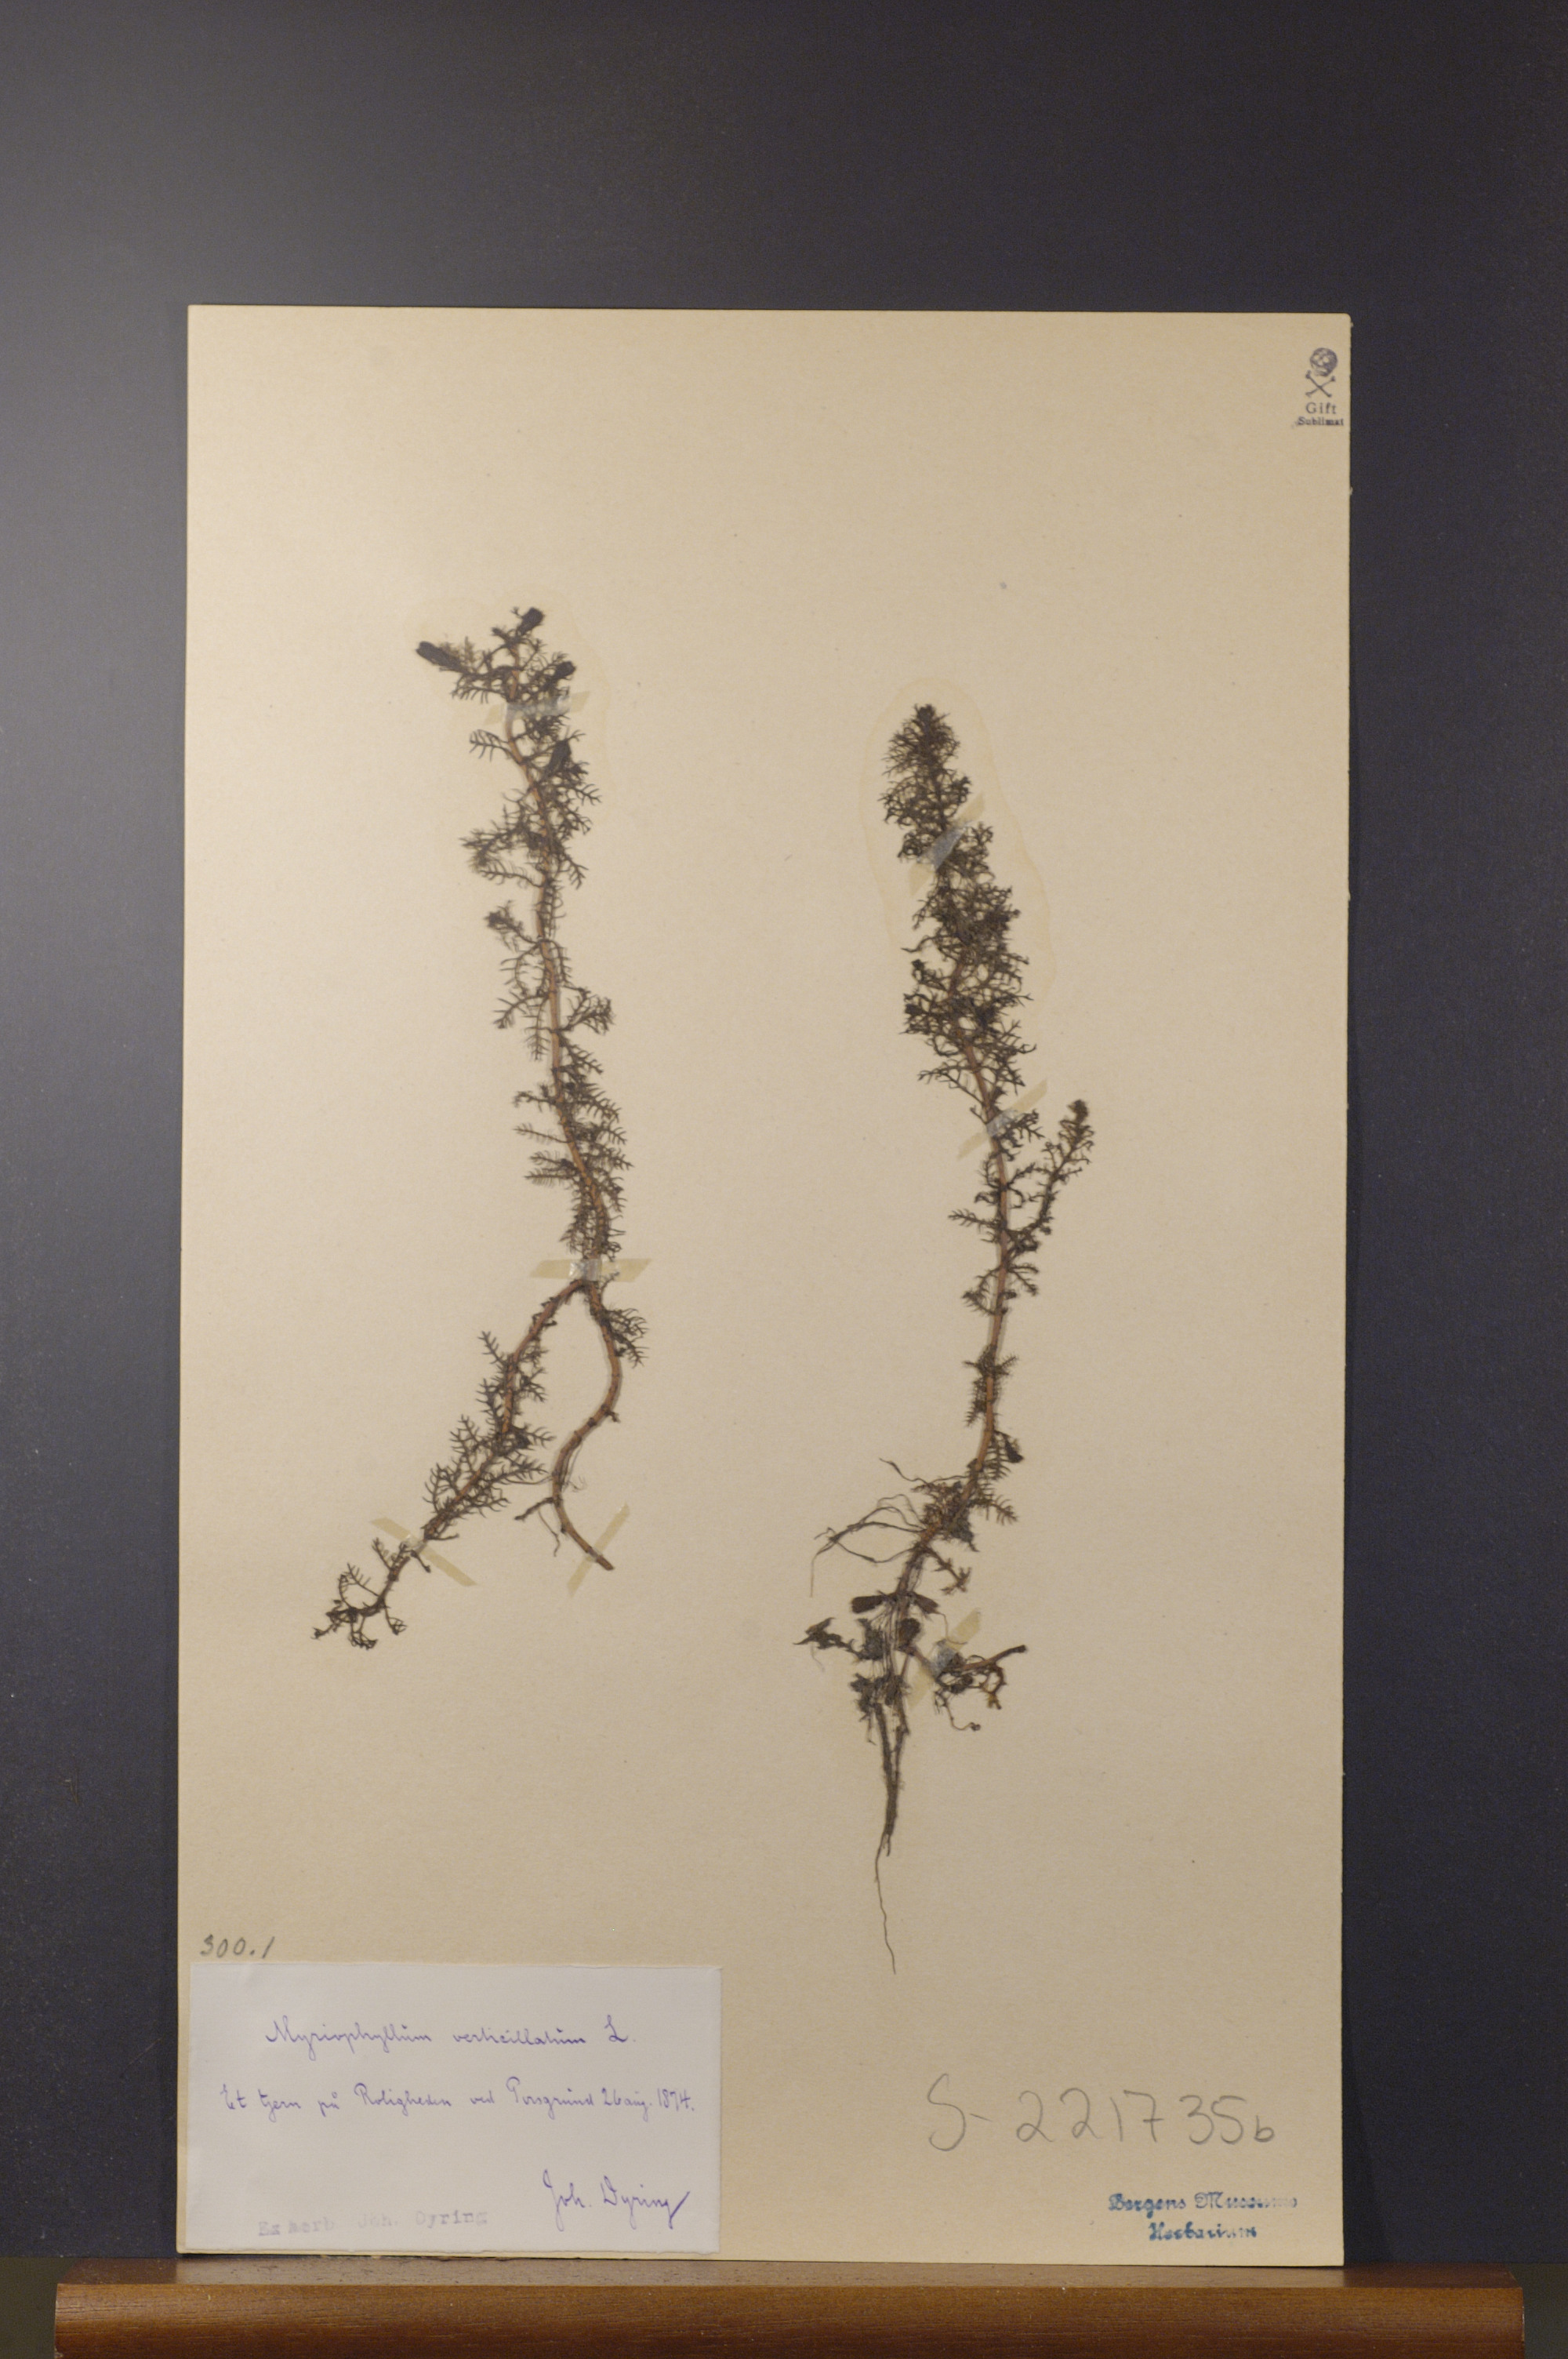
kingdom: Plantae
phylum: Tracheophyta
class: Magnoliopsida
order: Saxifragales
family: Haloragaceae
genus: Myriophyllum
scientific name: Myriophyllum verticillatum
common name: Whorled water-milfoil
